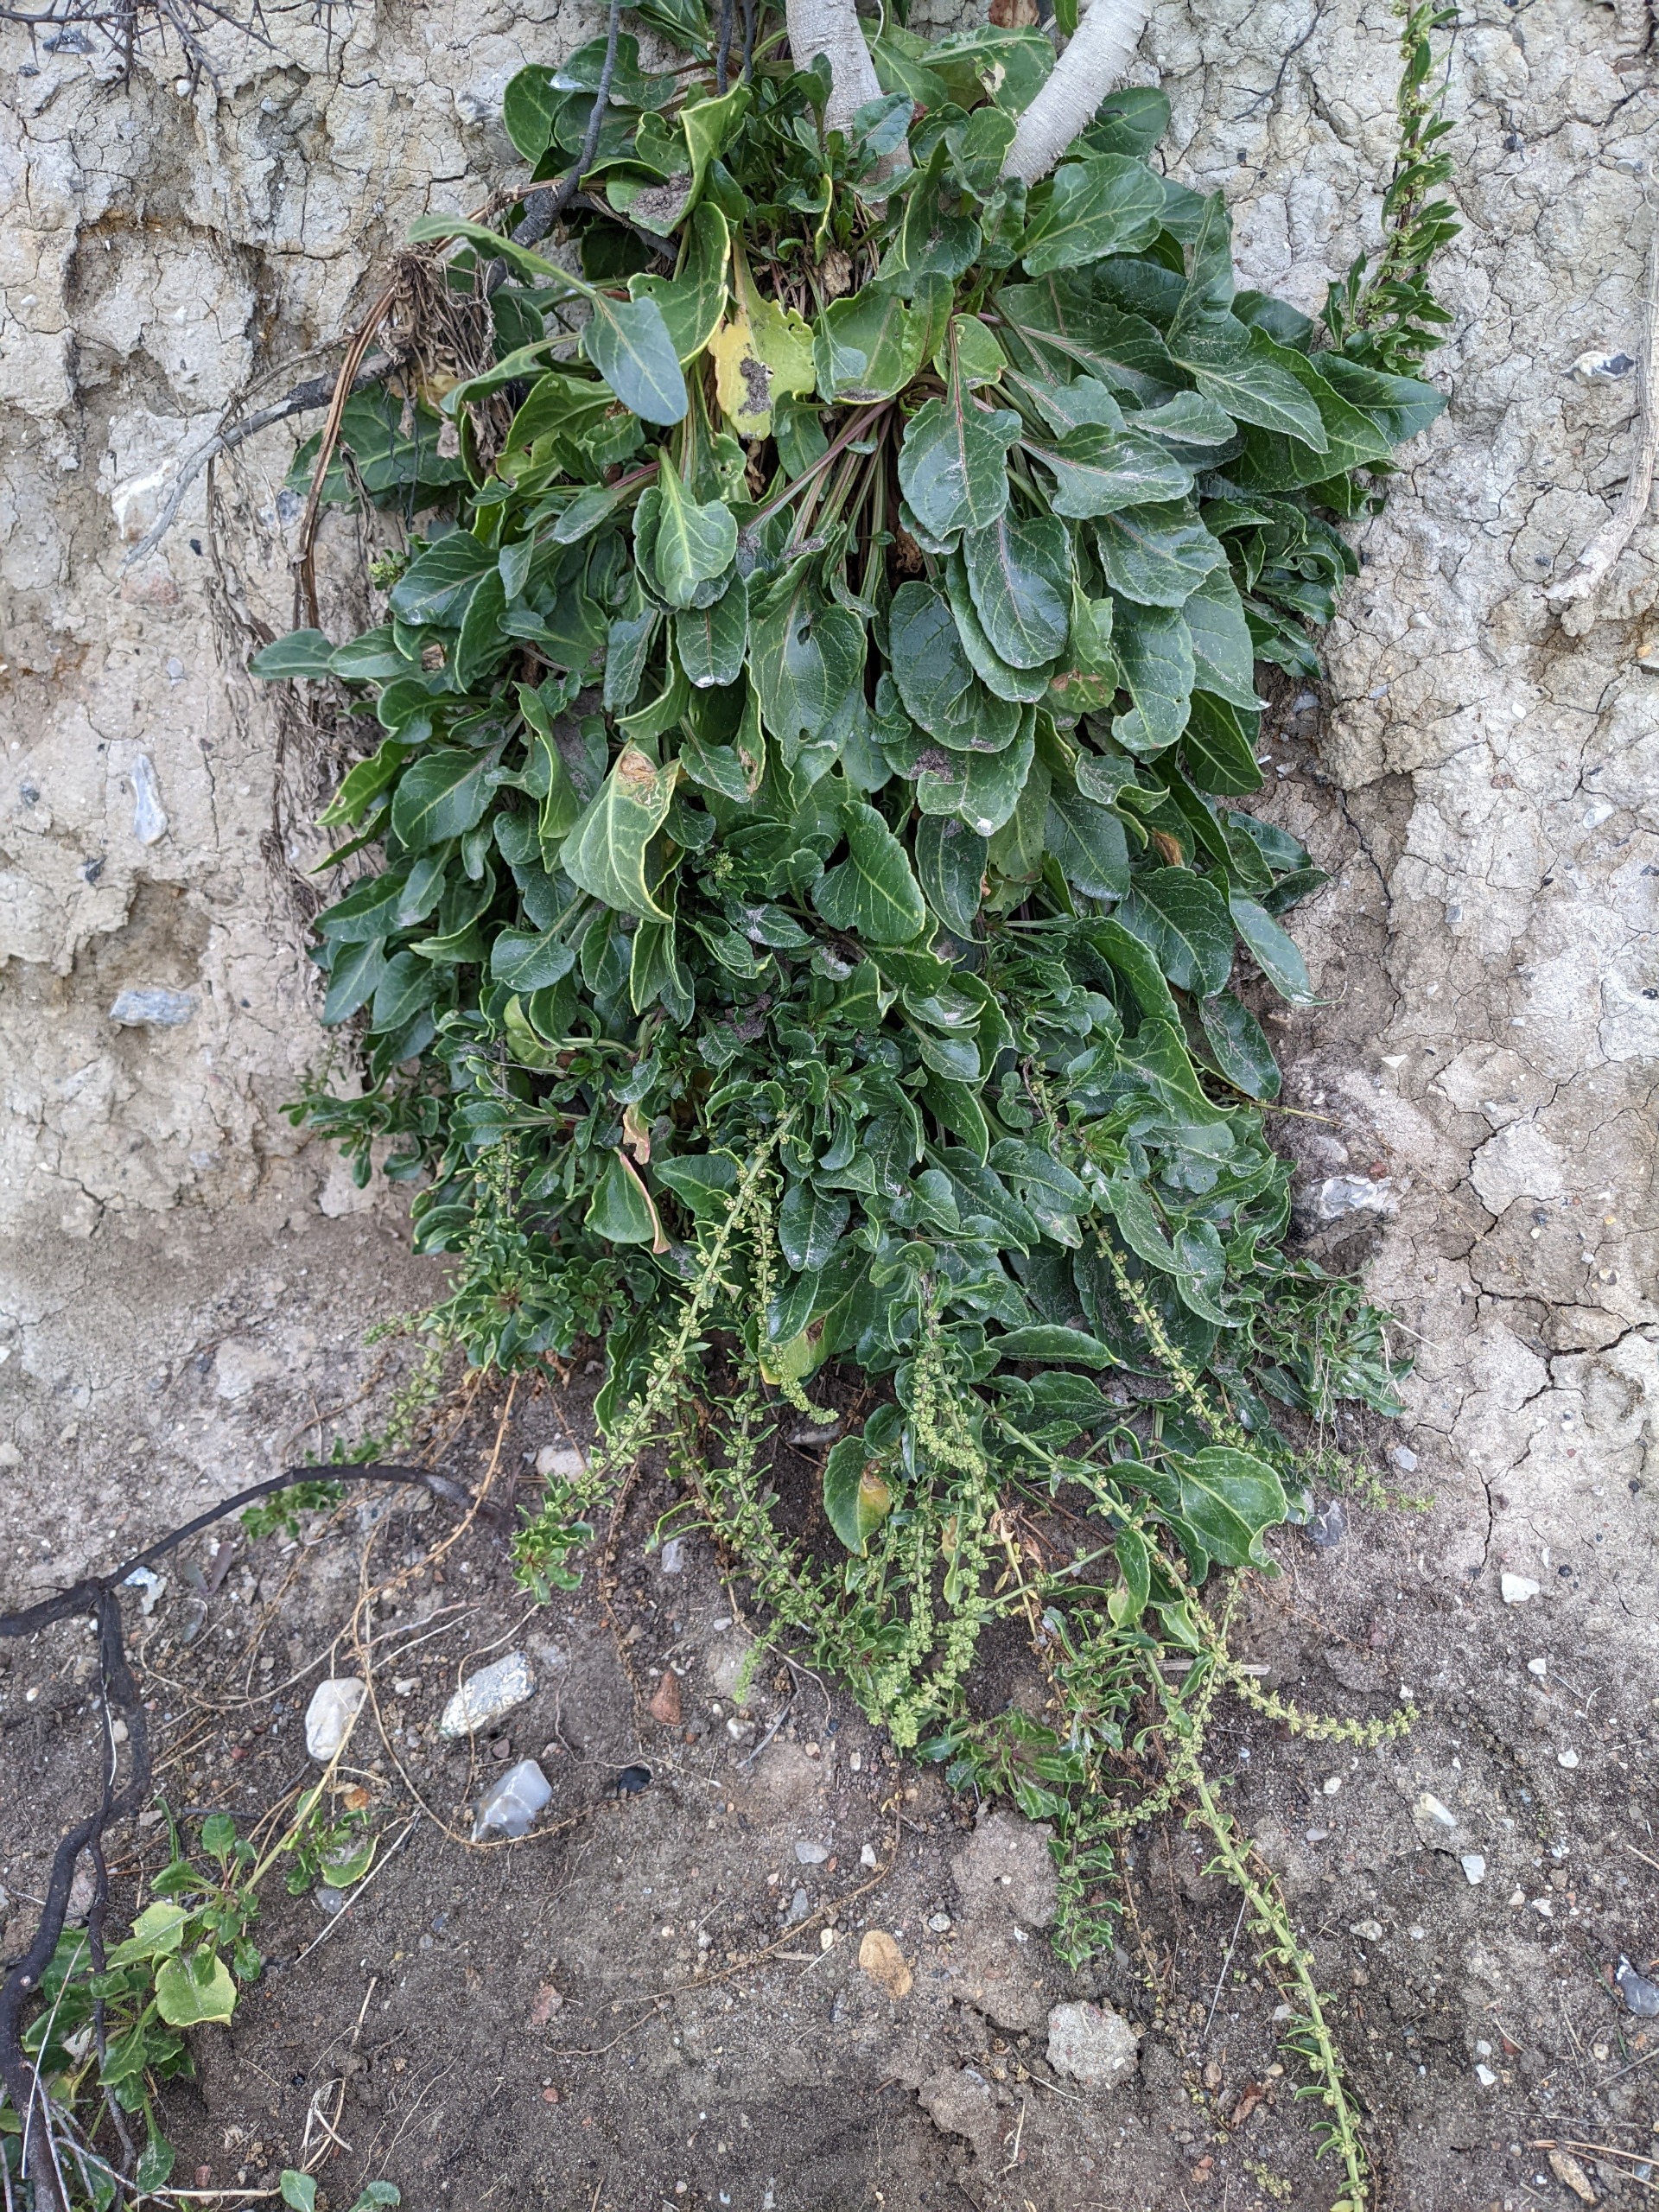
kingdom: Plantae
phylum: Tracheophyta
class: Magnoliopsida
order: Caryophyllales
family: Amaranthaceae
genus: Beta
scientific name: Beta maritima
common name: Strand-bede
